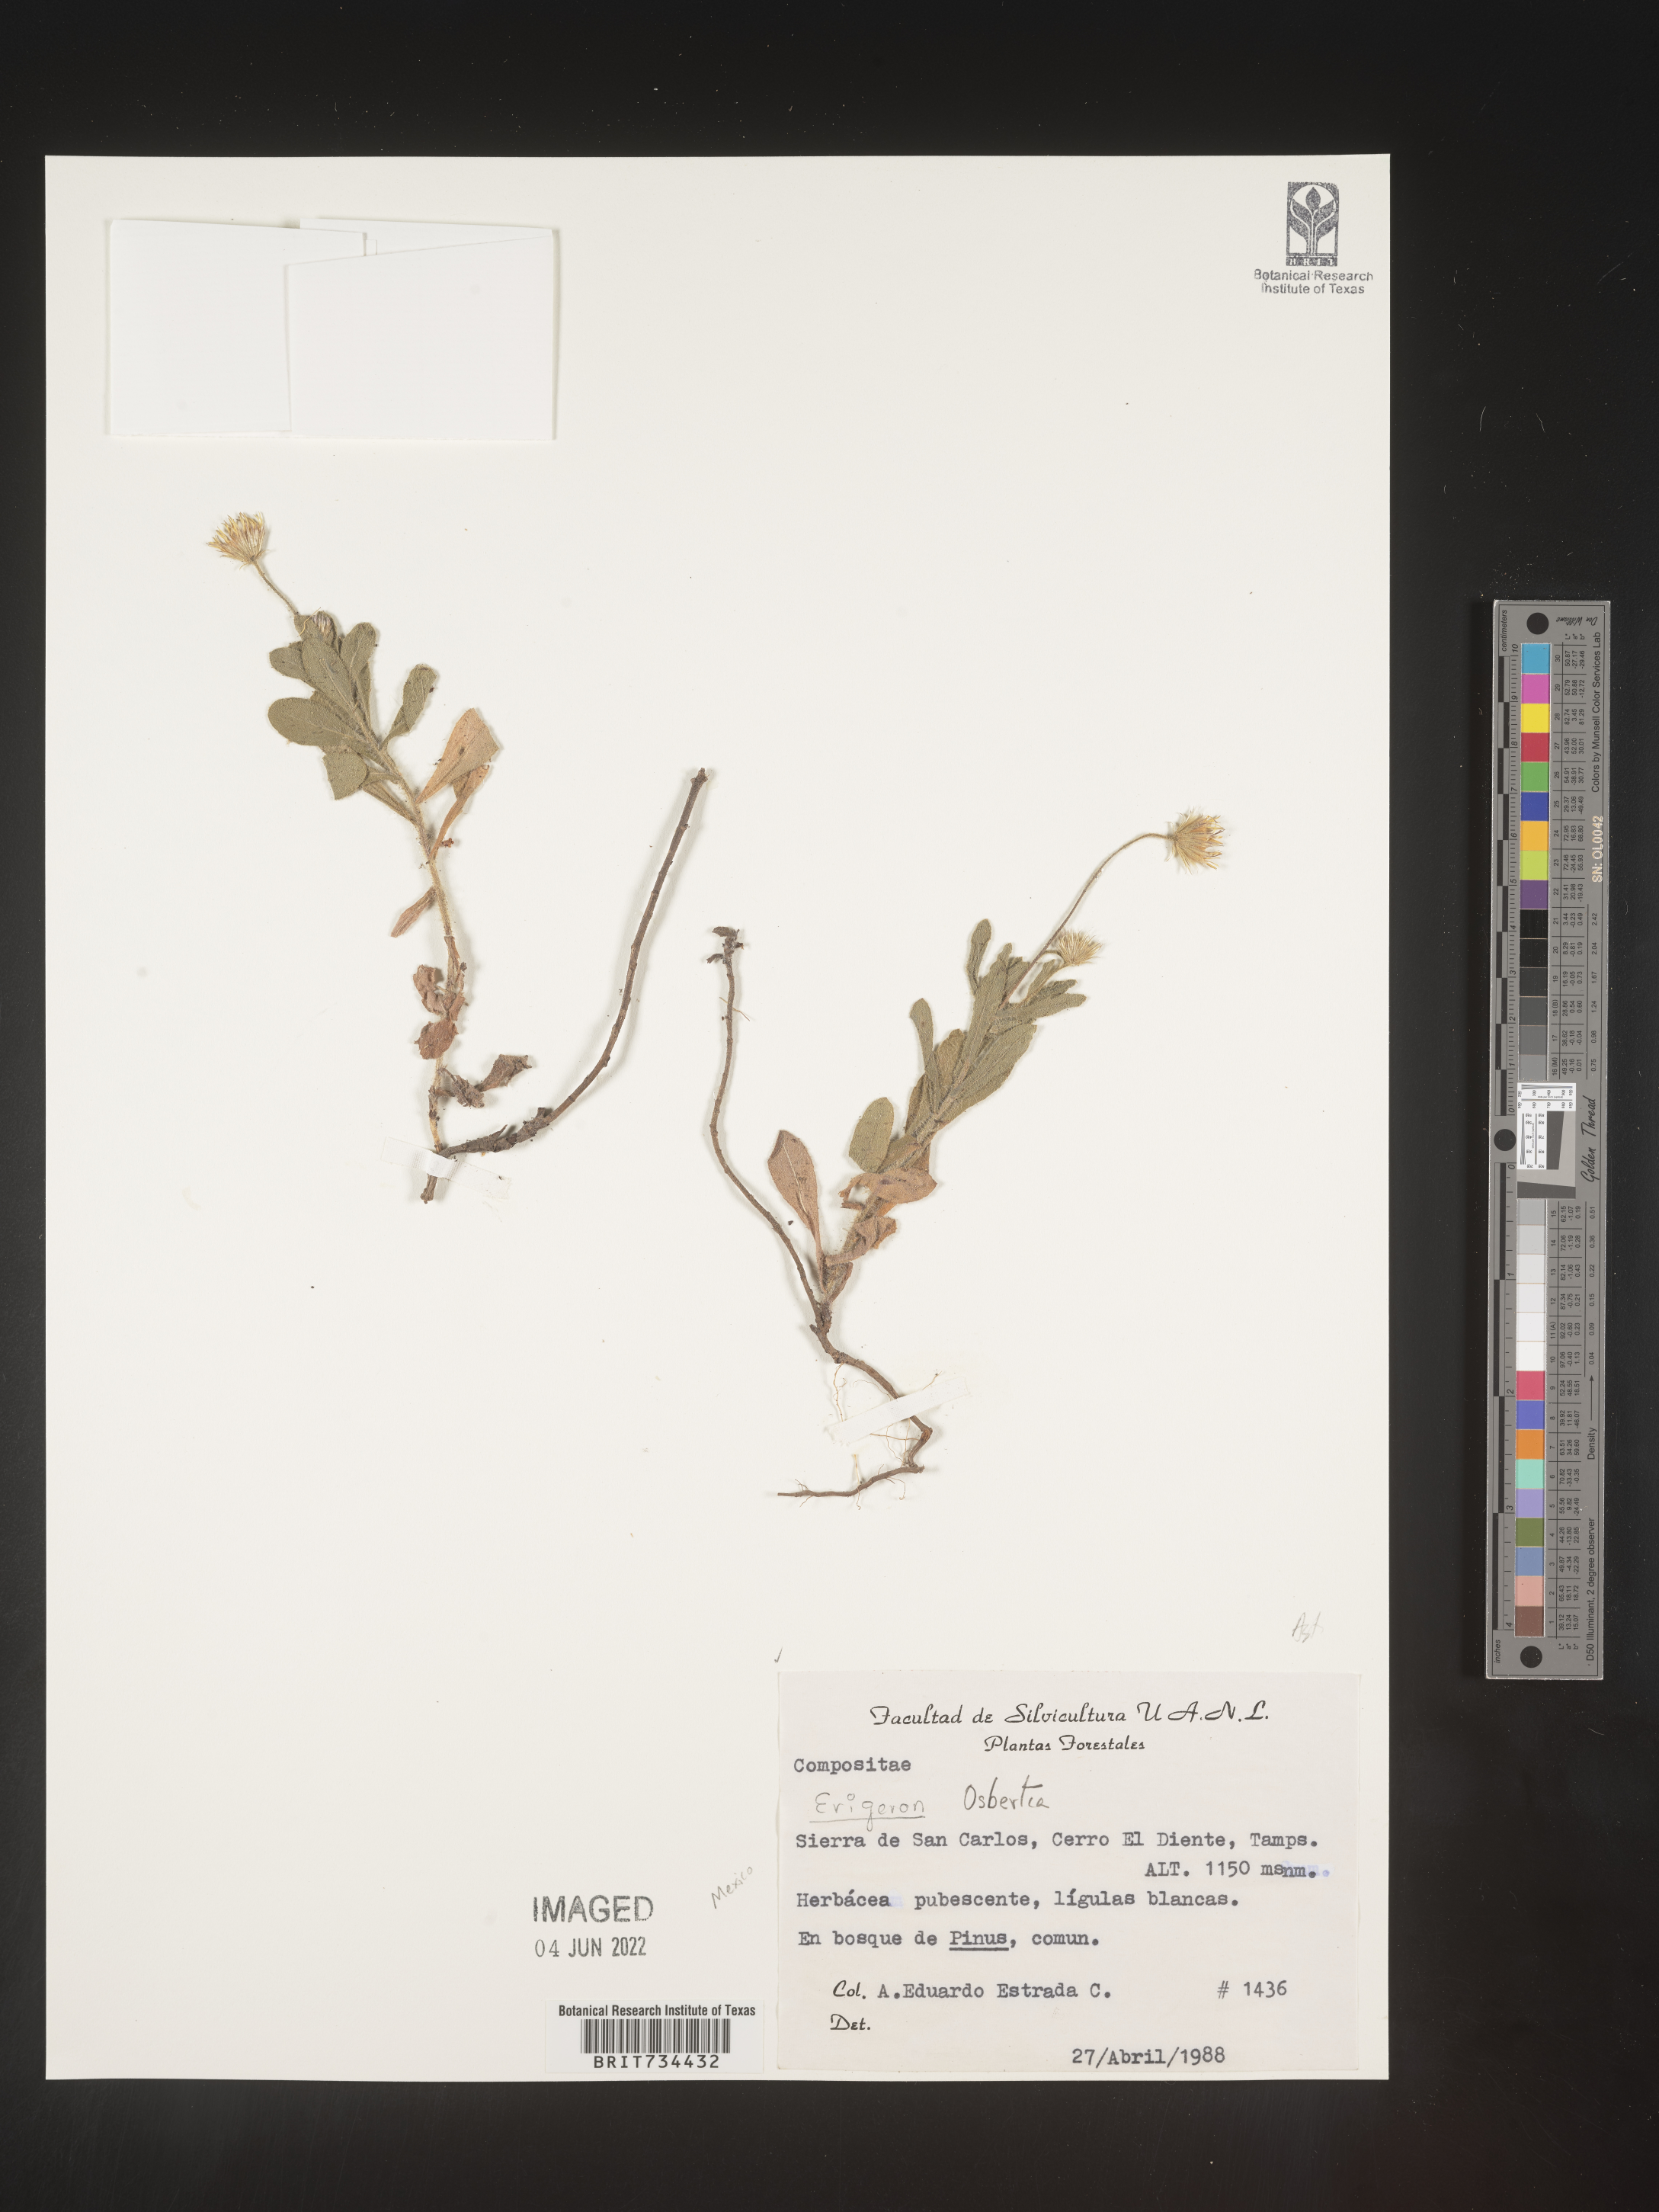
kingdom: Plantae
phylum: Tracheophyta
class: Magnoliopsida
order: Asterales
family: Asteraceae
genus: Osbertia
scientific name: Osbertia
